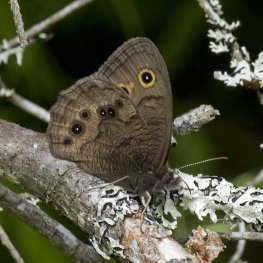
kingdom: Animalia
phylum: Arthropoda
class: Insecta
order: Lepidoptera
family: Nymphalidae
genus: Cercyonis
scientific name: Cercyonis pegala
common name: Common Wood-Nymph
